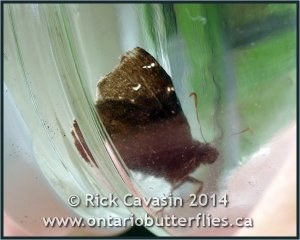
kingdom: Animalia
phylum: Arthropoda
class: Insecta
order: Lepidoptera
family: Hesperiidae
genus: Autochton
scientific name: Autochton
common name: Northern Cloudywing
